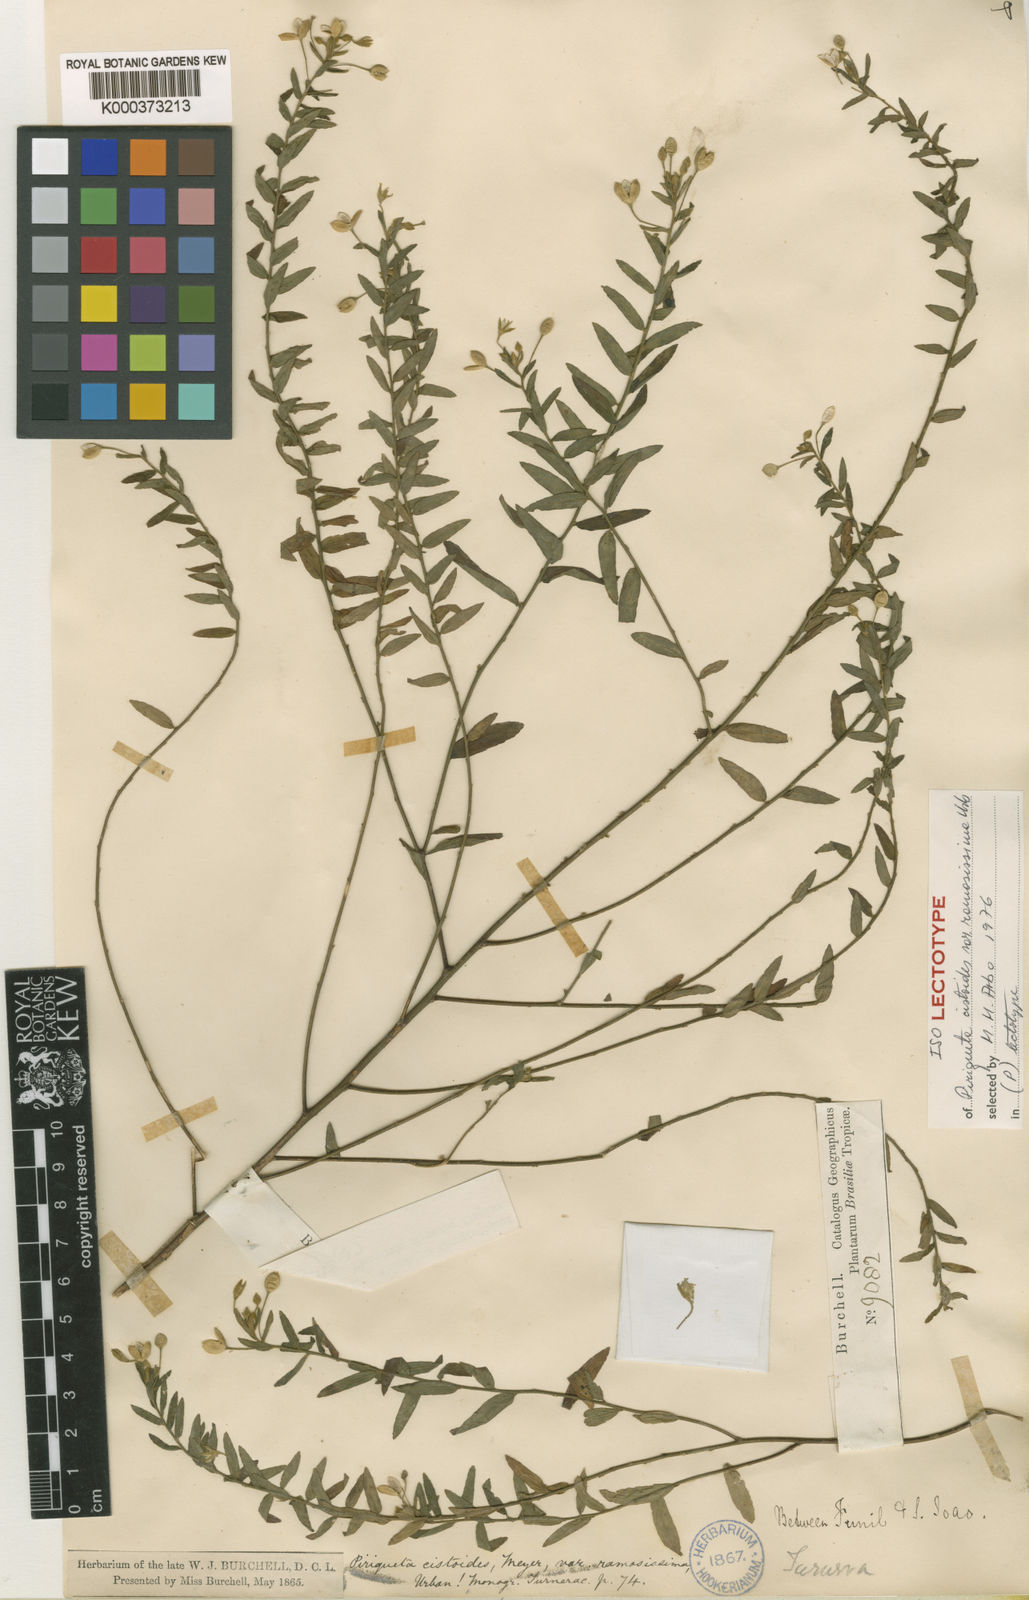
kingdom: Plantae
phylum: Tracheophyta
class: Magnoliopsida
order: Malpighiales
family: Turneraceae
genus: Piriqueta
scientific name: Piriqueta cistoides
